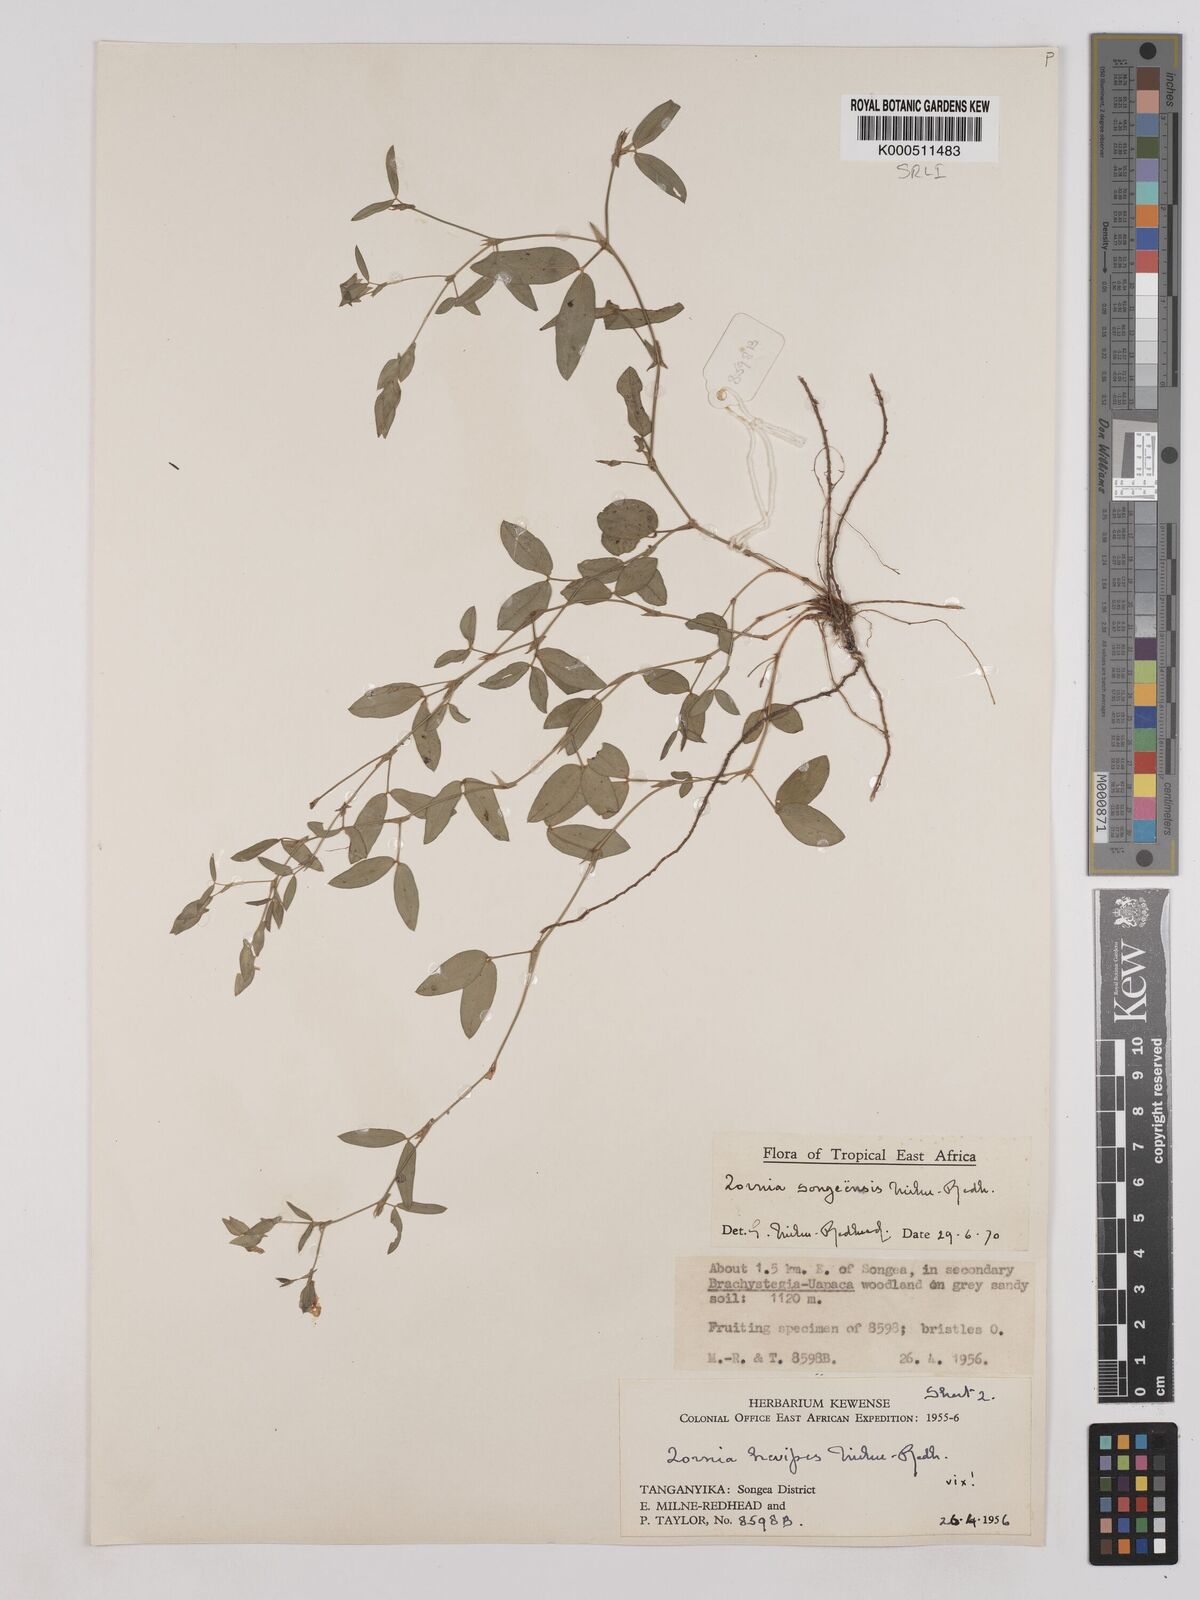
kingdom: Plantae
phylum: Tracheophyta
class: Magnoliopsida
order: Fabales
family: Fabaceae
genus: Zornia
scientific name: Zornia songeensis
